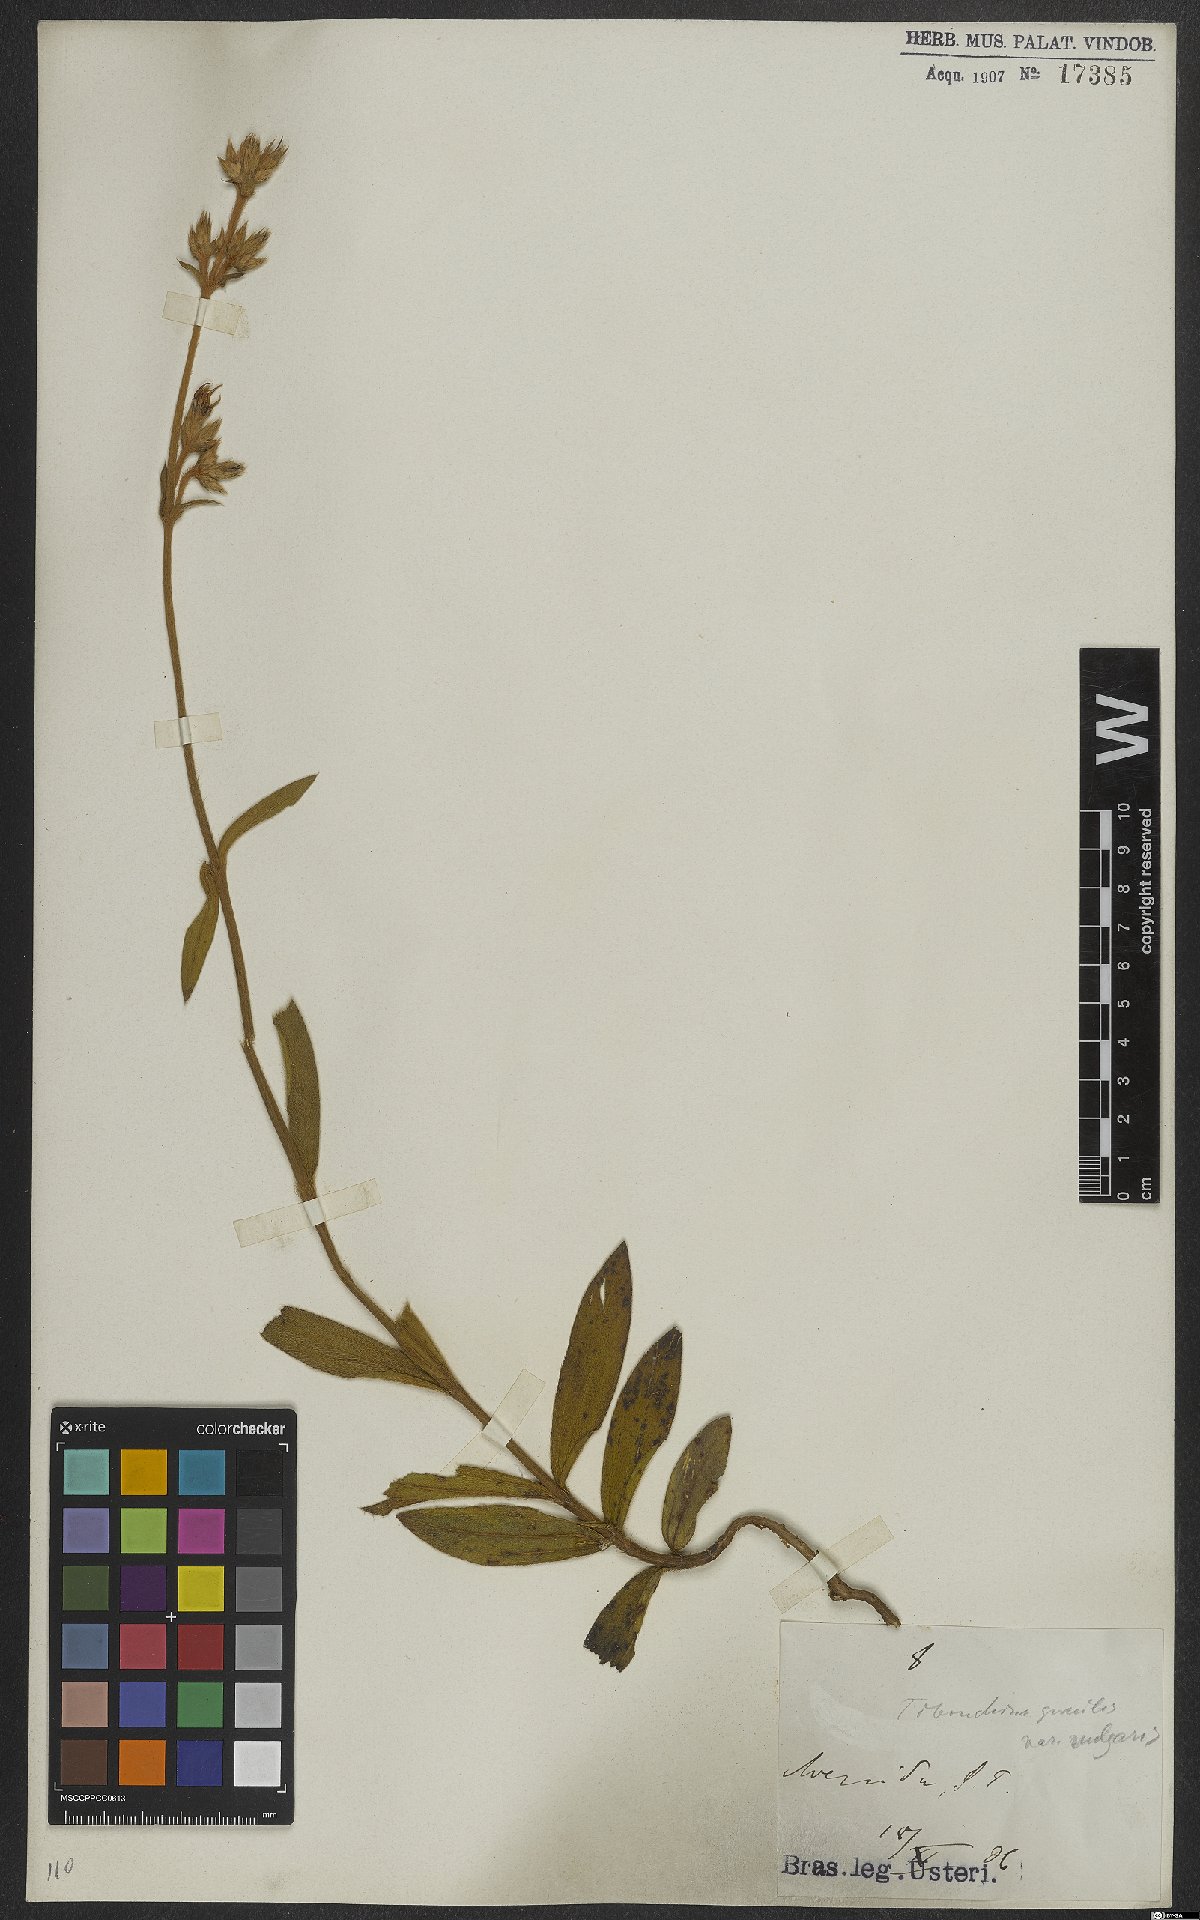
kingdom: Plantae
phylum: Tracheophyta
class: Magnoliopsida
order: Myrtales
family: Melastomataceae
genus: Chaetogastra
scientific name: Chaetogastra gracilis
